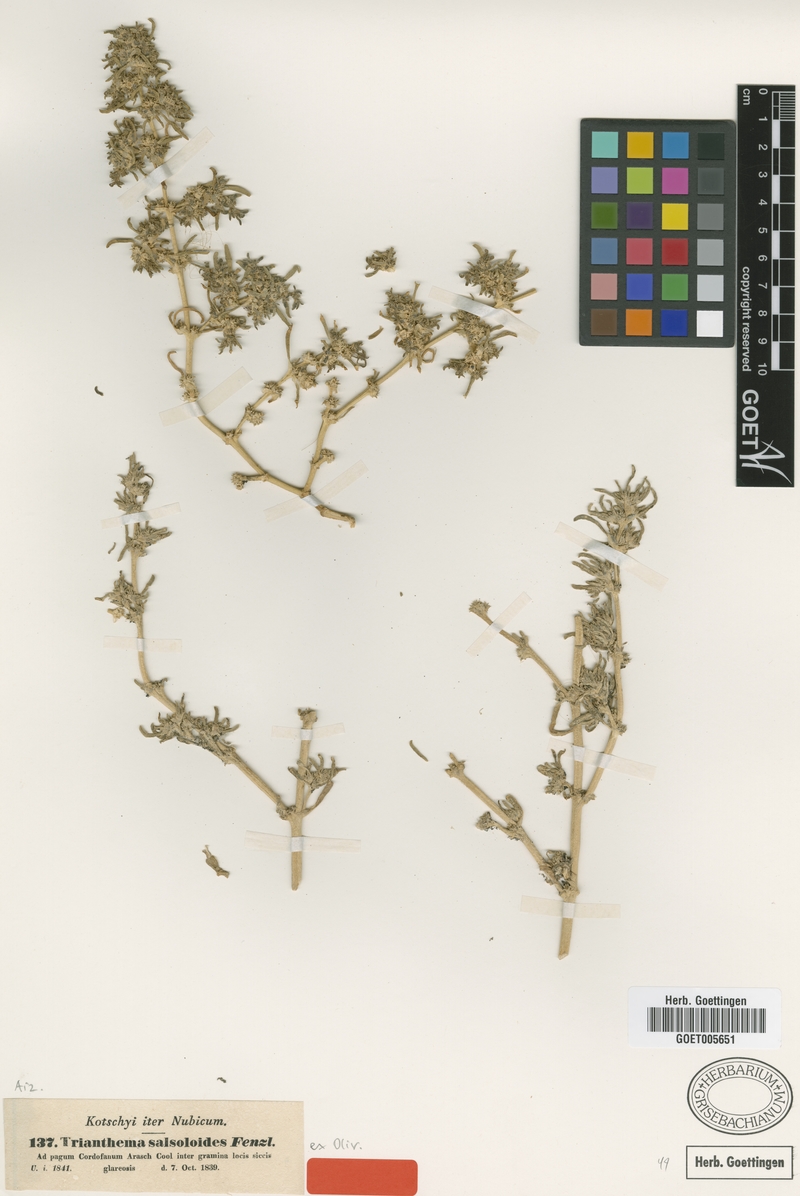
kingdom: Plantae
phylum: Tracheophyta
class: Magnoliopsida
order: Caryophyllales
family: Aizoaceae
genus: Trianthema
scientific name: Trianthema salsoloides
